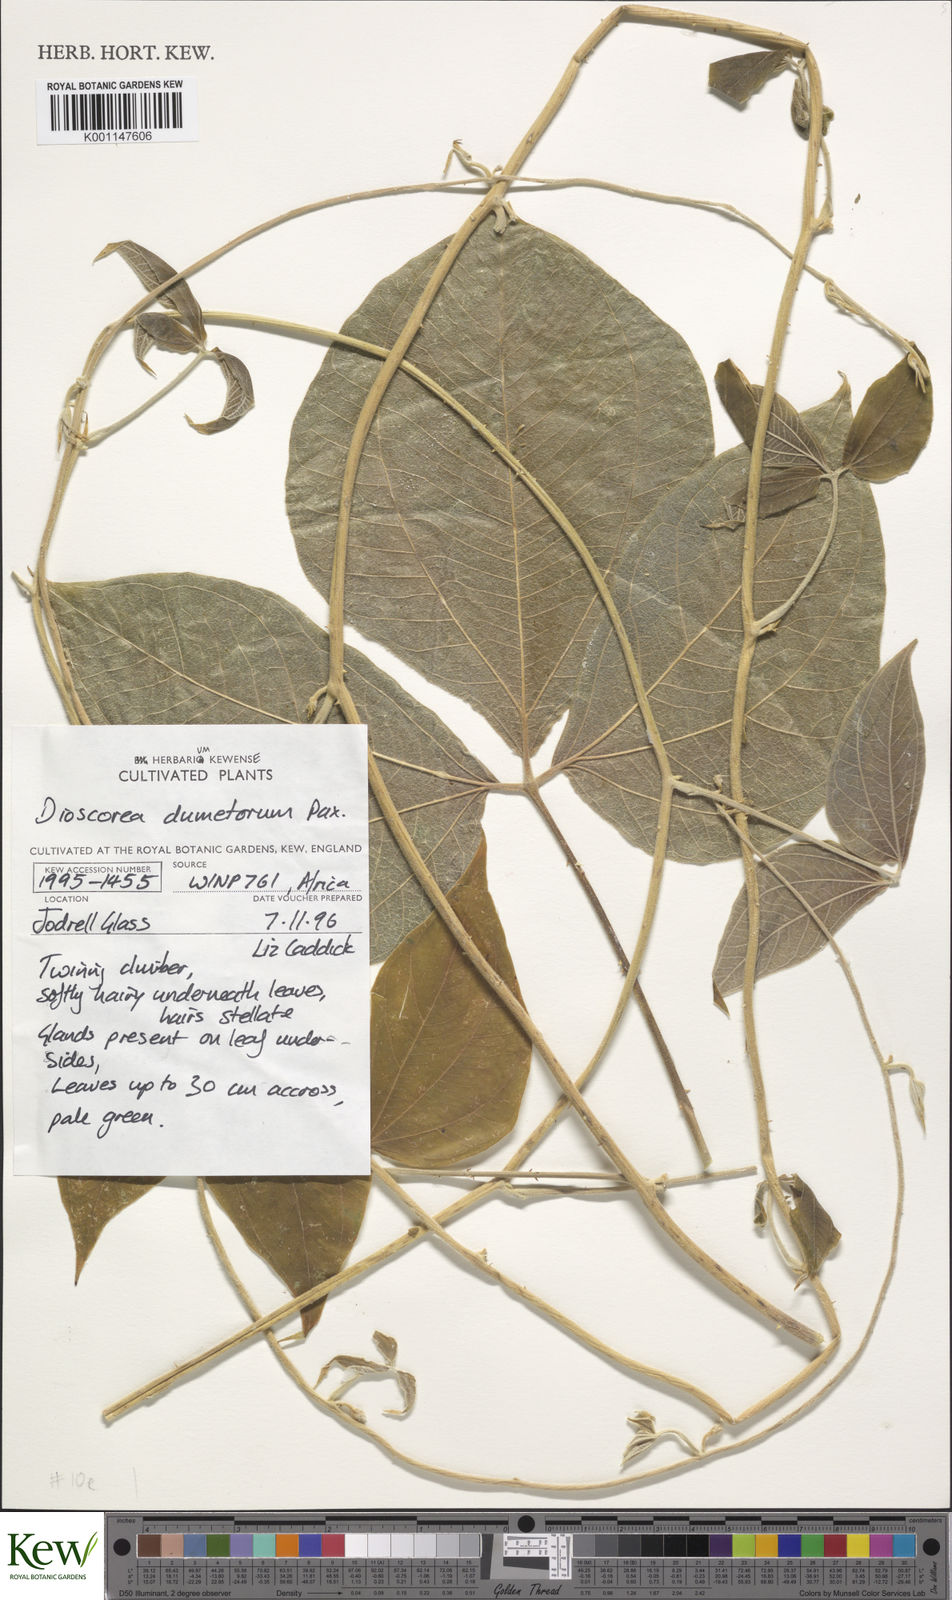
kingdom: Plantae
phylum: Tracheophyta
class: Liliopsida
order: Dioscoreales
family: Dioscoreaceae
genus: Dioscorea
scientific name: Dioscorea dumetorum
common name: African bitter yam
